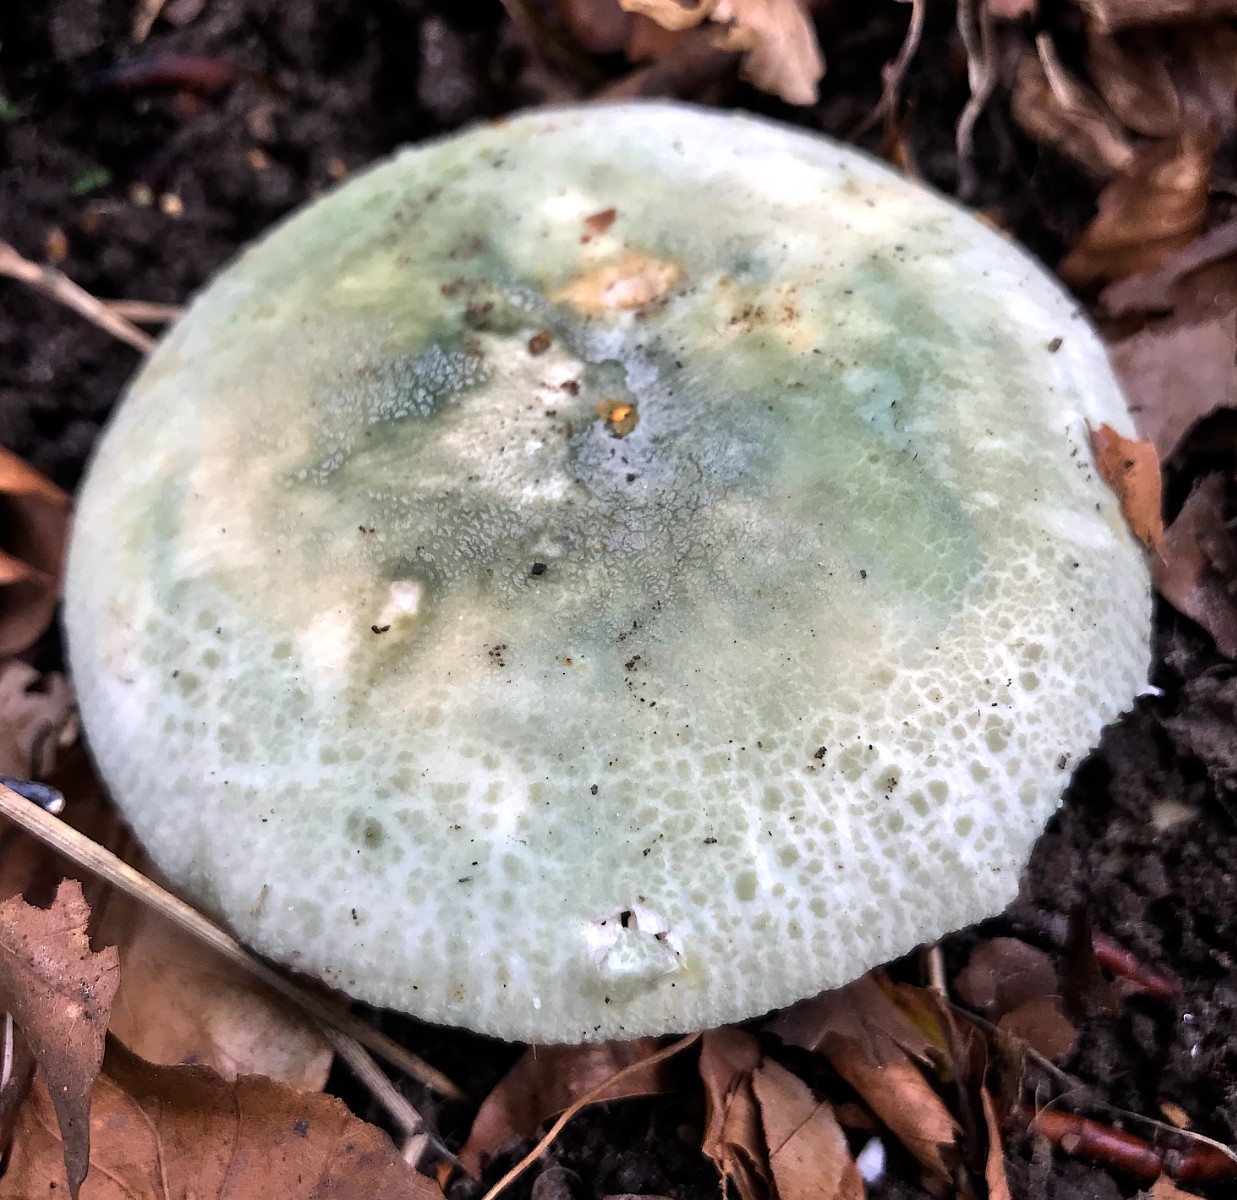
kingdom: Fungi
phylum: Basidiomycota
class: Agaricomycetes
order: Russulales
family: Russulaceae
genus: Russula
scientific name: Russula virescens
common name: spanskgrøn skørhat
